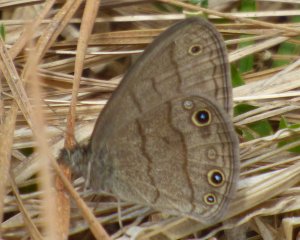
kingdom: Animalia
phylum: Arthropoda
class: Insecta
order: Lepidoptera
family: Nymphalidae
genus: Hermeuptychia
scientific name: Hermeuptychia hermes
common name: Carolina Satyr
